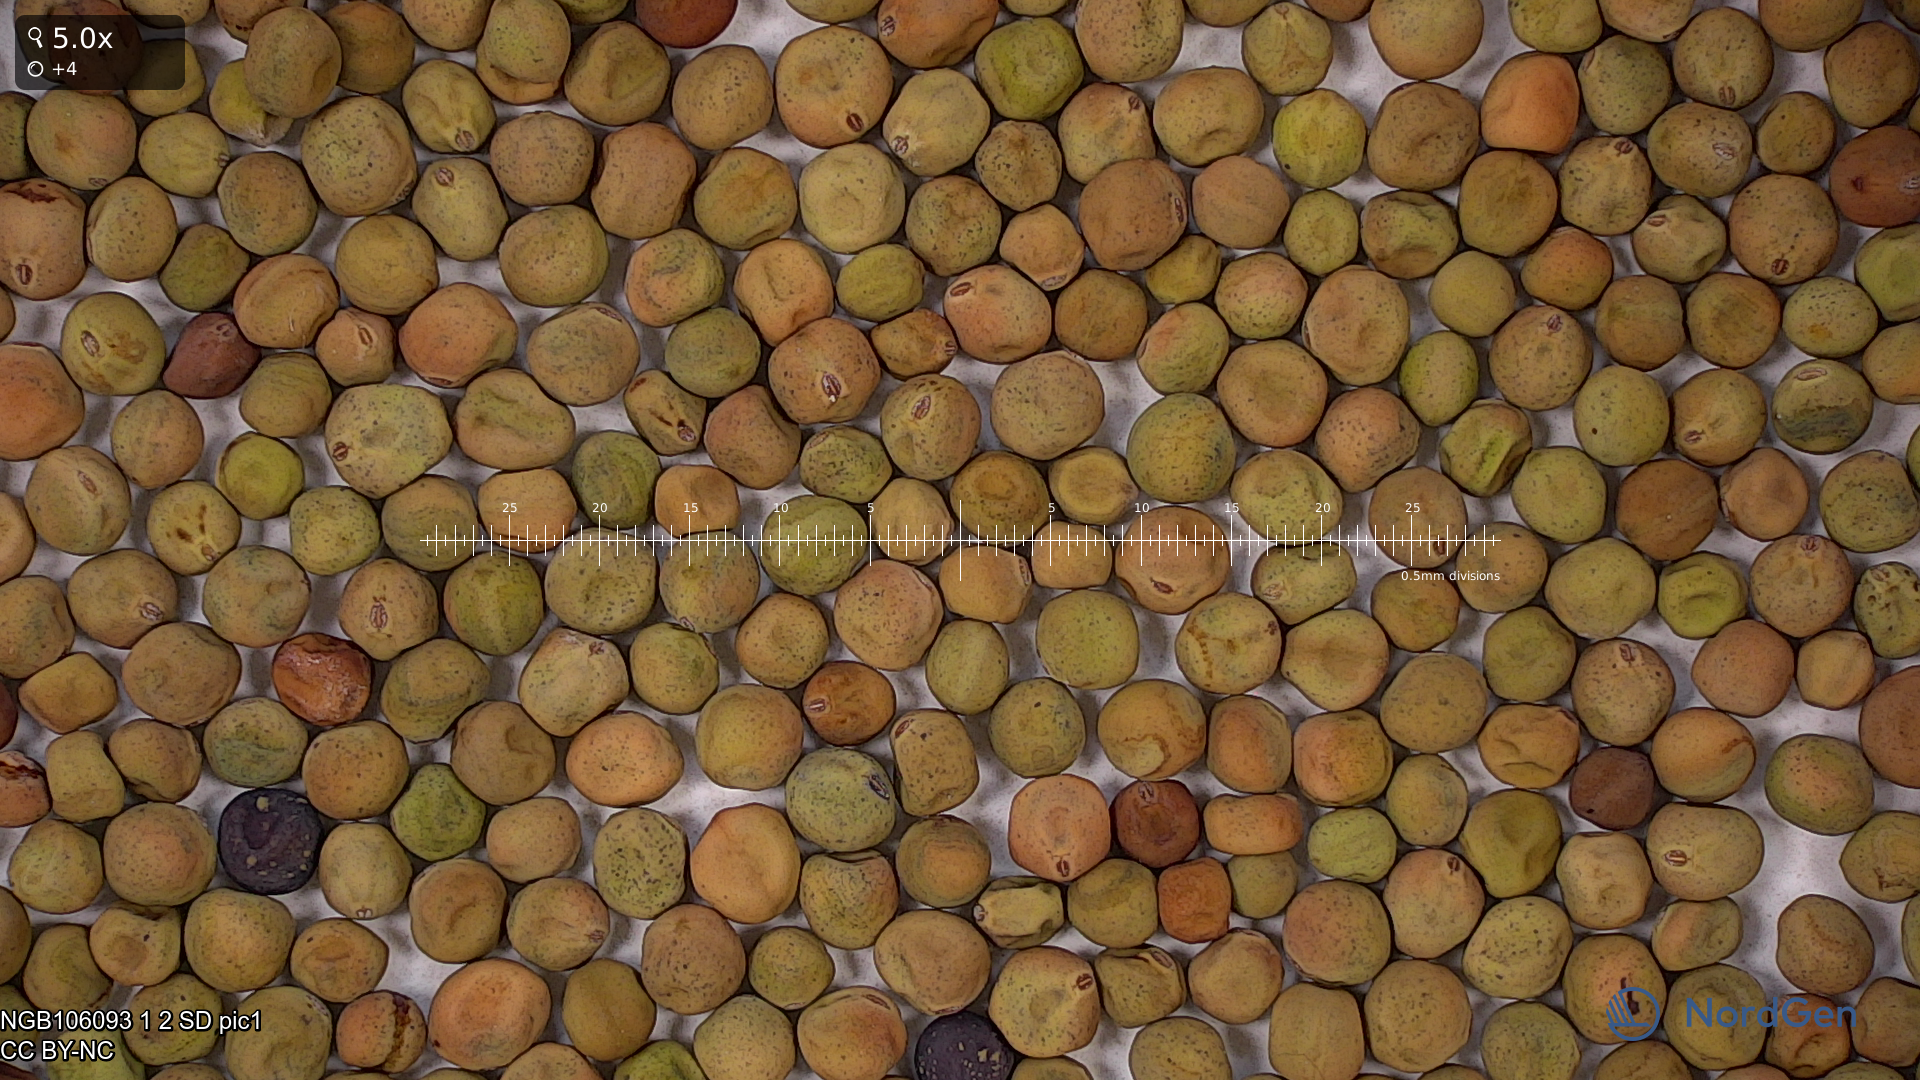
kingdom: Plantae
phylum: Tracheophyta
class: Magnoliopsida
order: Fabales
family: Fabaceae
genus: Lathyrus
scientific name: Lathyrus oleraceus
